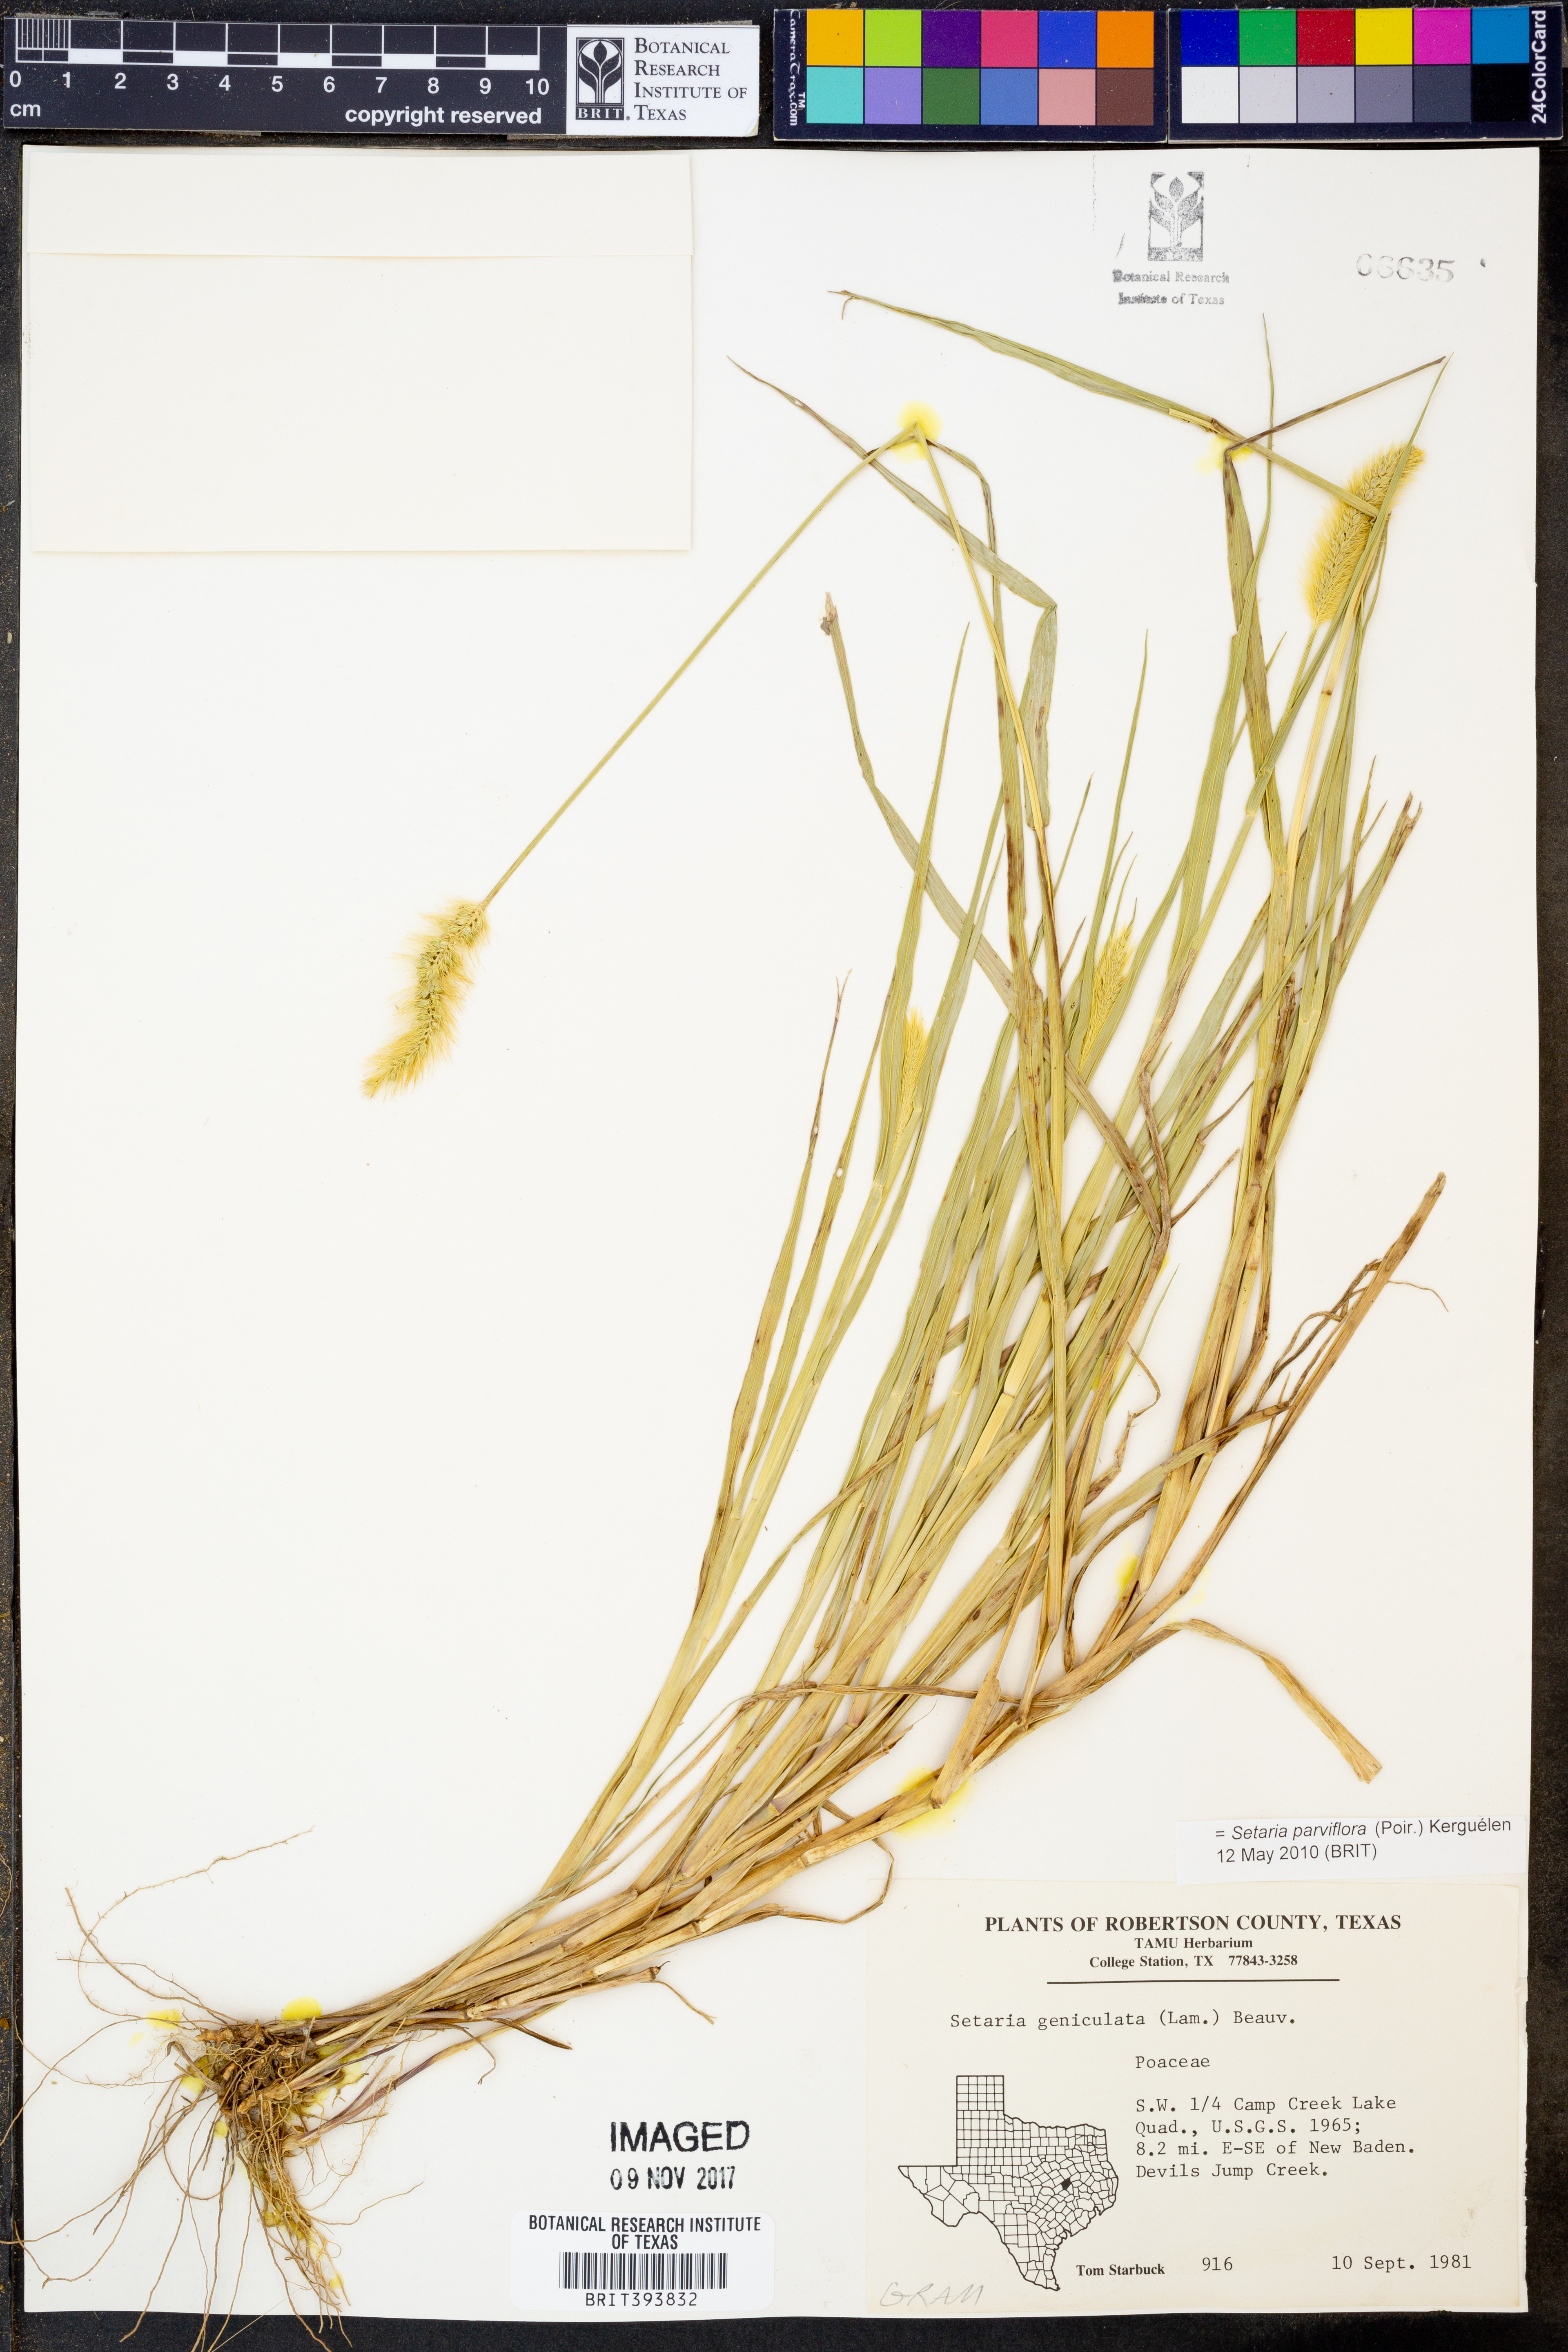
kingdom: Plantae
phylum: Tracheophyta
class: Liliopsida
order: Poales
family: Poaceae
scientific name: Poaceae
